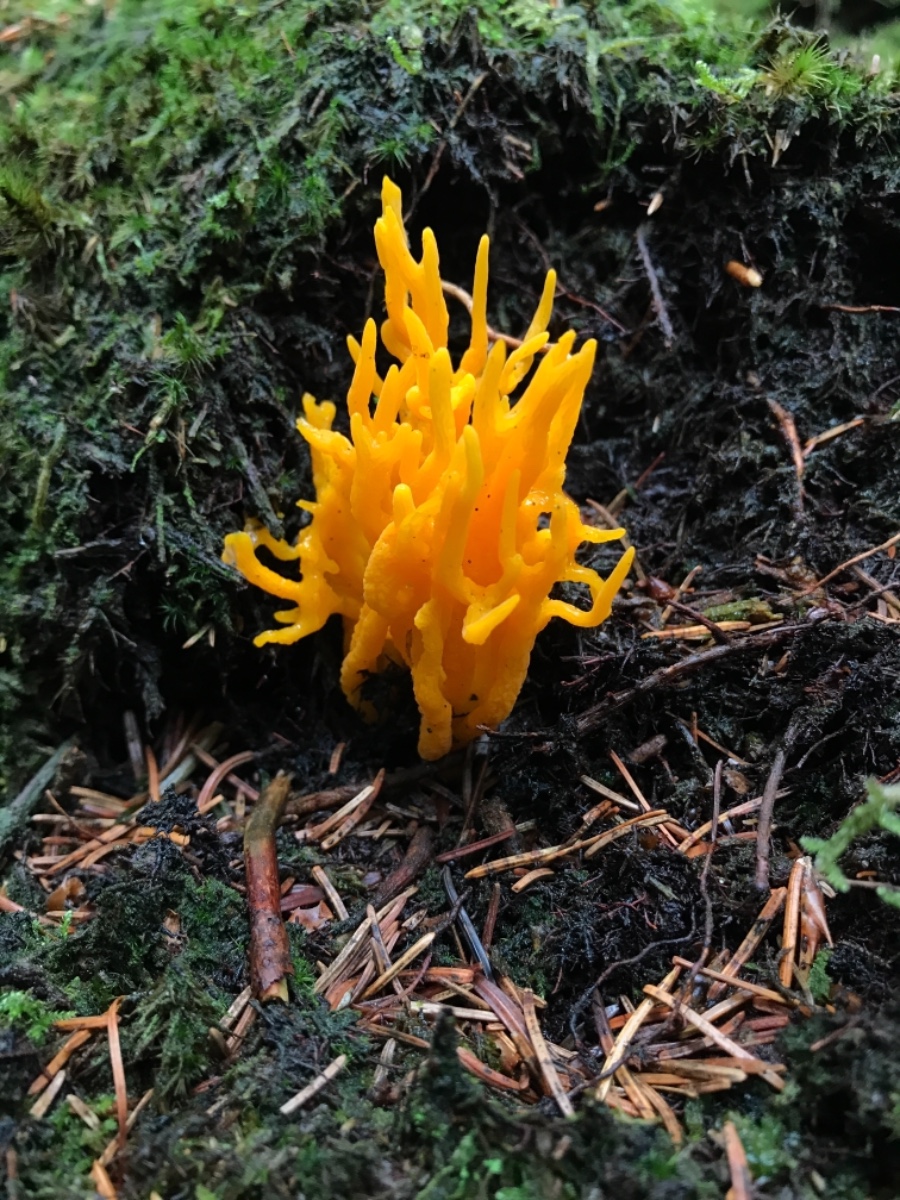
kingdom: Fungi
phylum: Basidiomycota
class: Dacrymycetes
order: Dacrymycetales
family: Dacrymycetaceae
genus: Calocera
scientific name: Calocera viscosa
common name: almindelig guldgaffel
